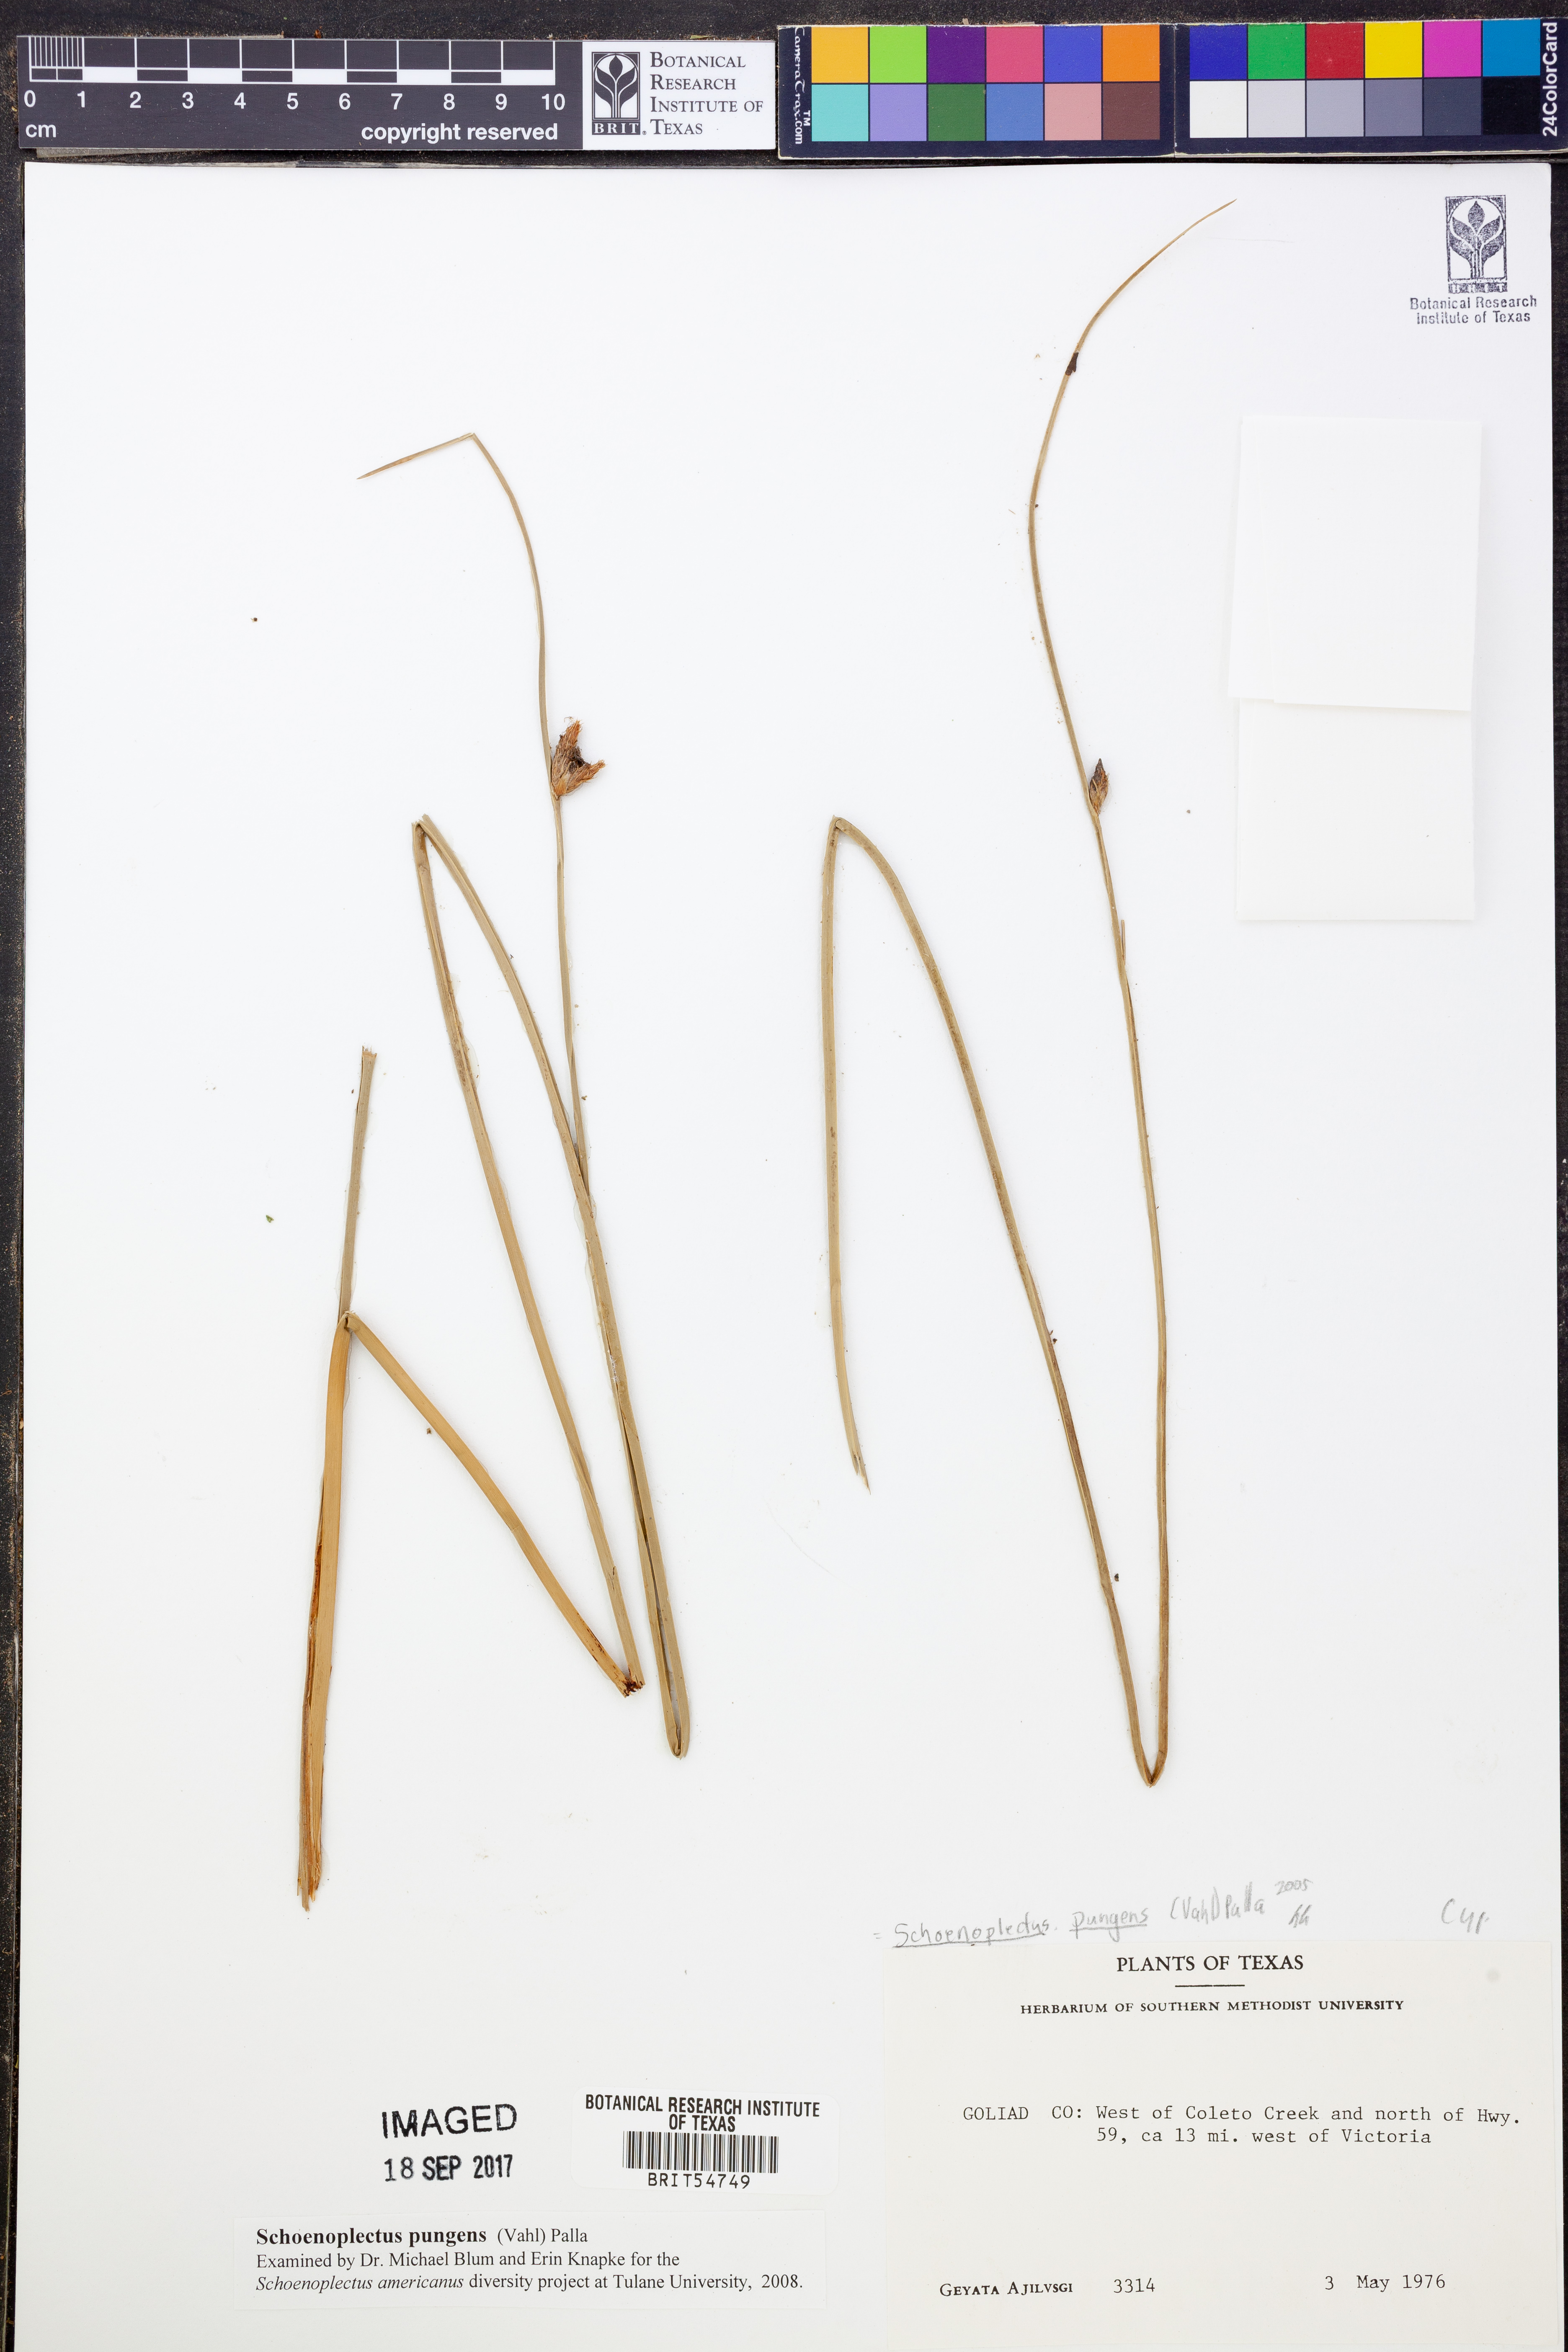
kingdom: Plantae
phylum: Tracheophyta
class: Liliopsida
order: Poales
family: Cyperaceae
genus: Schoenoplectus
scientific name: Schoenoplectus pungens
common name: Sharp club-rush
